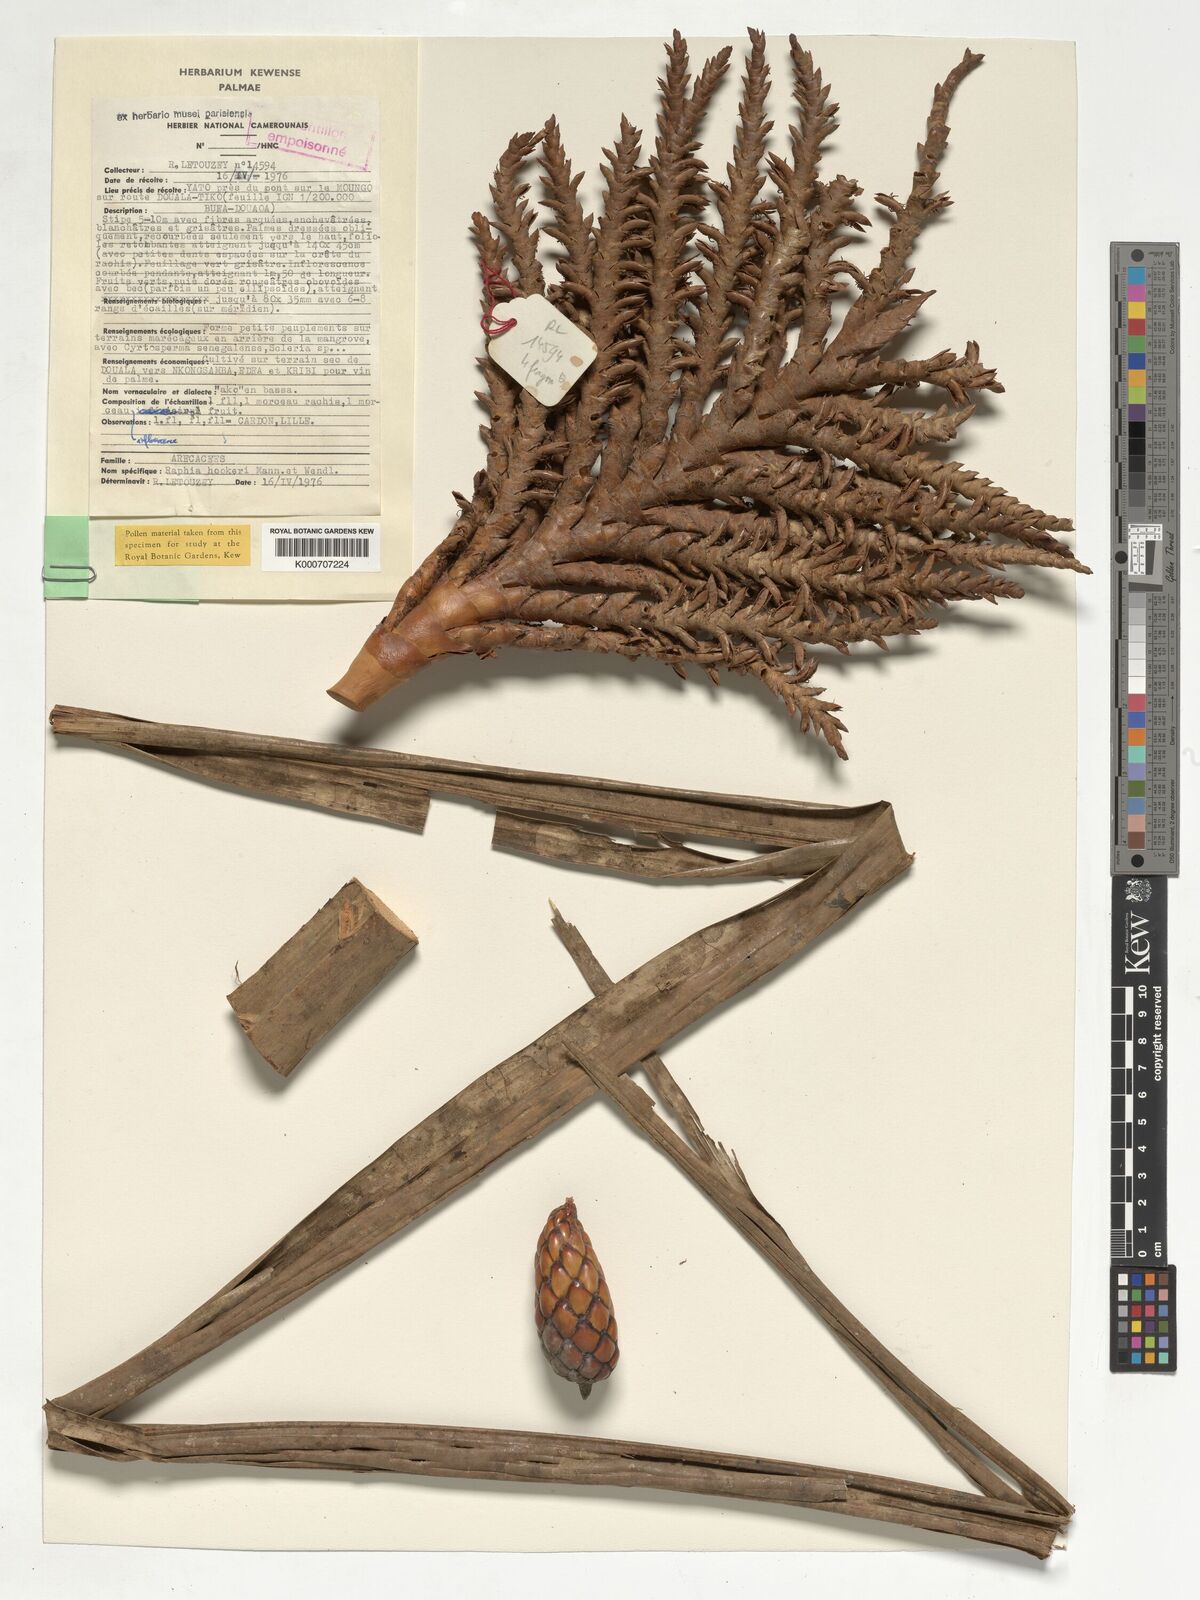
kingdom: Plantae
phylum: Tracheophyta
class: Liliopsida
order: Arecales
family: Arecaceae
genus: Raphia
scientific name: Raphia hookeri
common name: Wine palm
